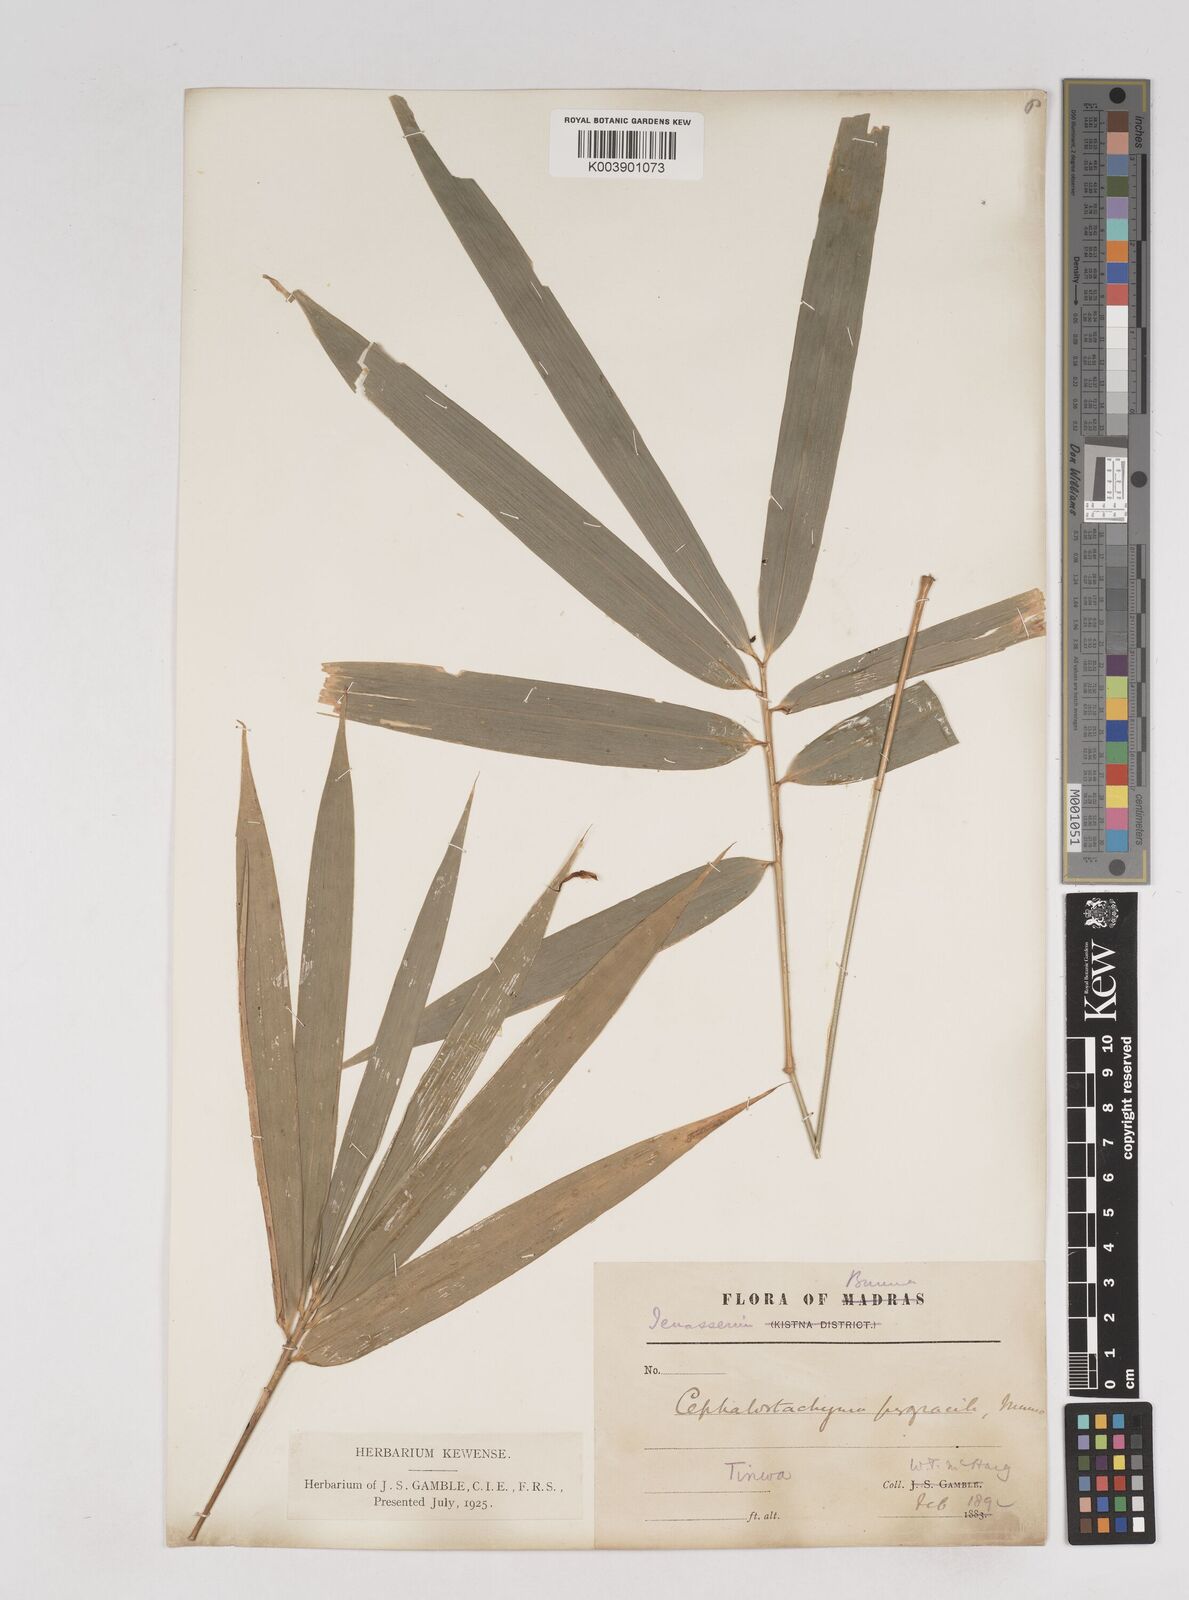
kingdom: Plantae
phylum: Tracheophyta
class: Liliopsida
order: Poales
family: Poaceae
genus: Schizostachyum
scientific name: Schizostachyum pergracile
